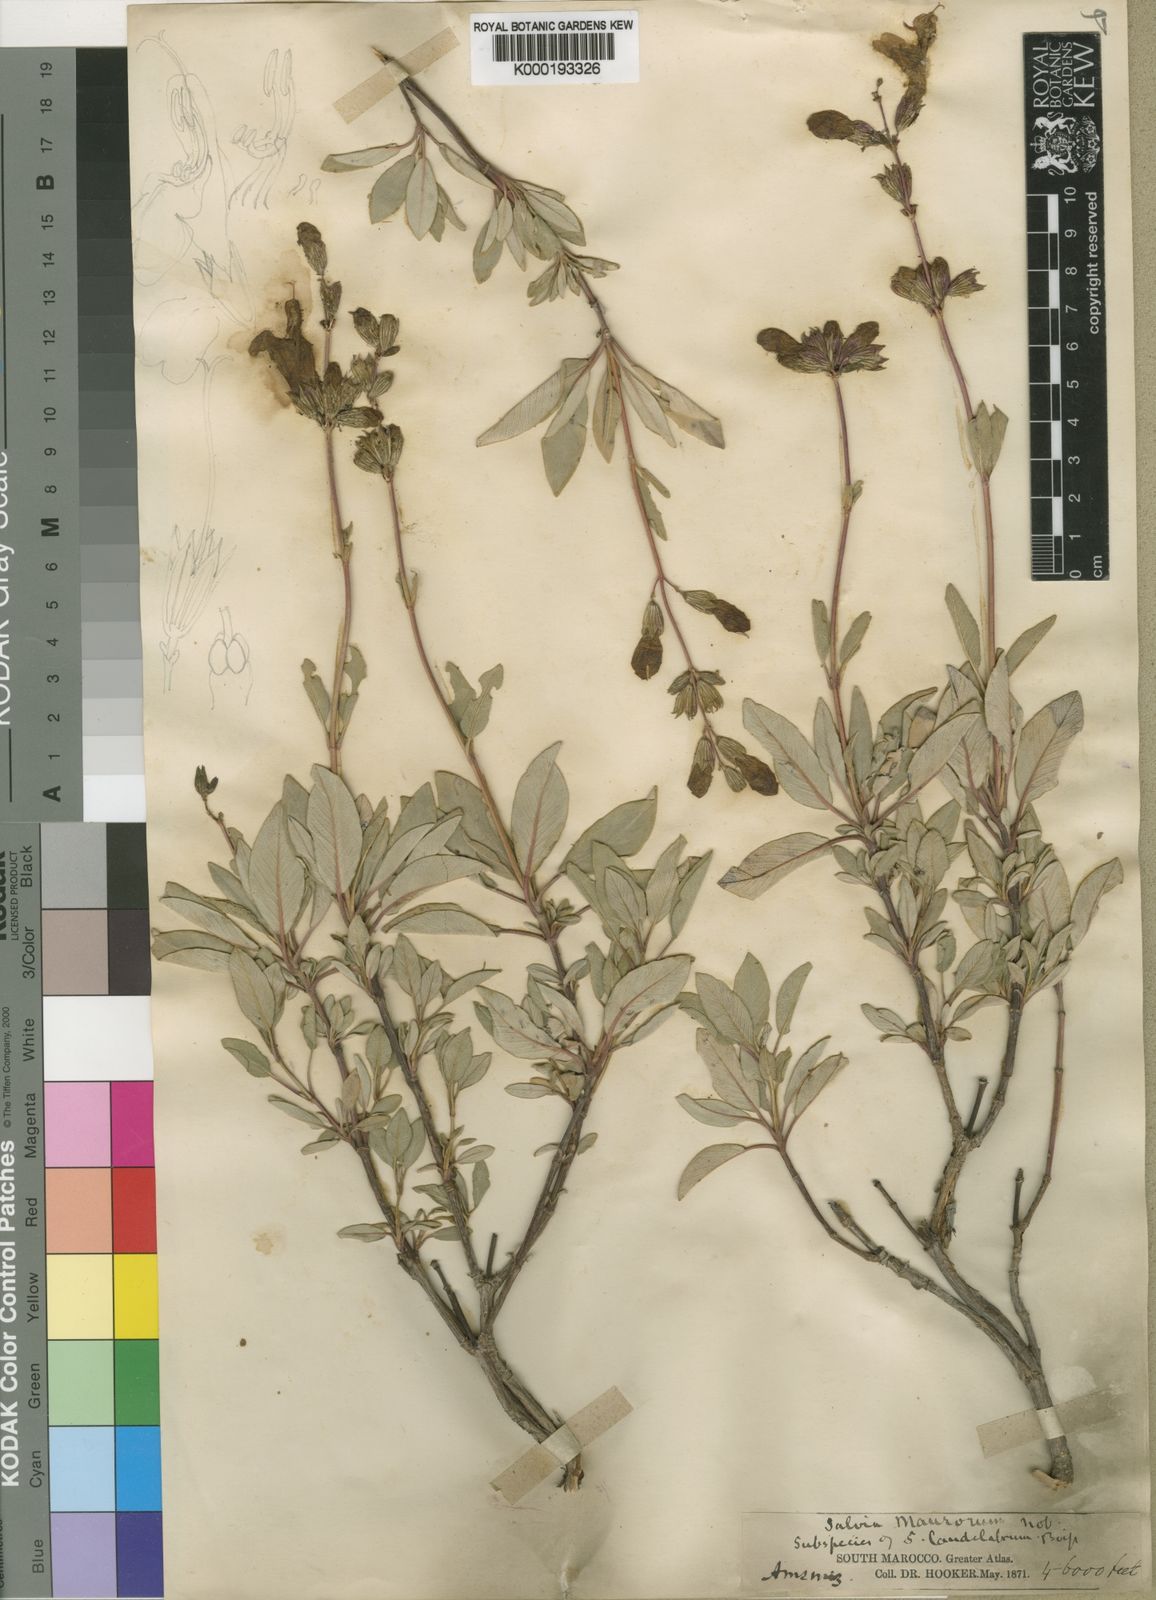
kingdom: Plantae
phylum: Tracheophyta
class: Magnoliopsida
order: Lamiales
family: Lamiaceae
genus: Salvia
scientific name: Salvia blancoana
